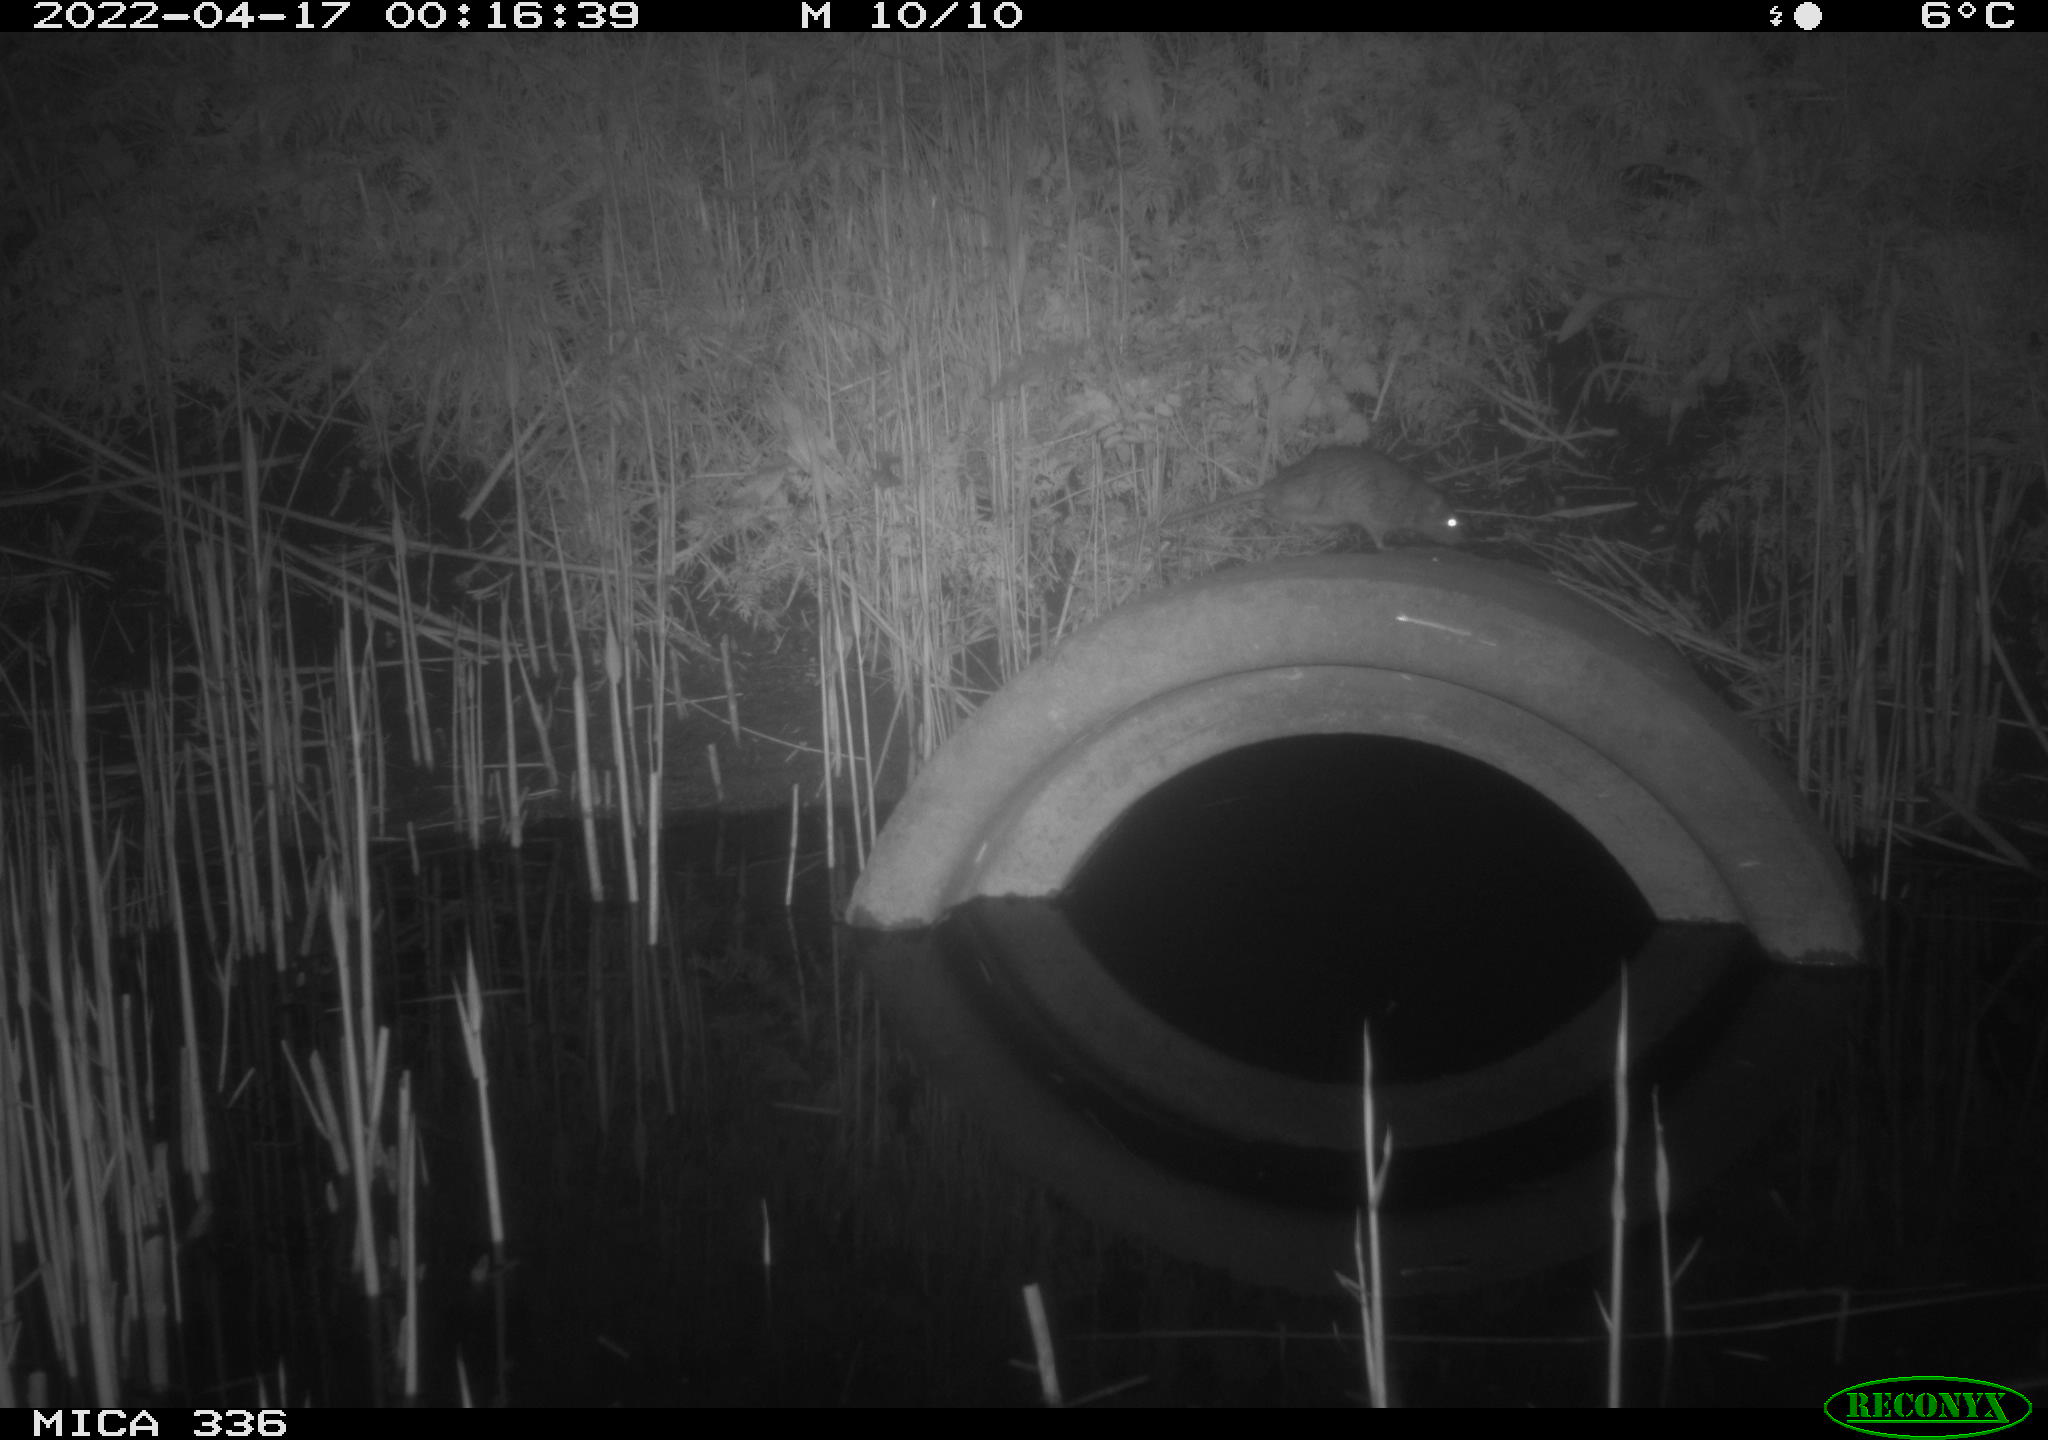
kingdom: Animalia
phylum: Chordata
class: Mammalia
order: Rodentia
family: Muridae
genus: Rattus
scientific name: Rattus norvegicus
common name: Brown rat
